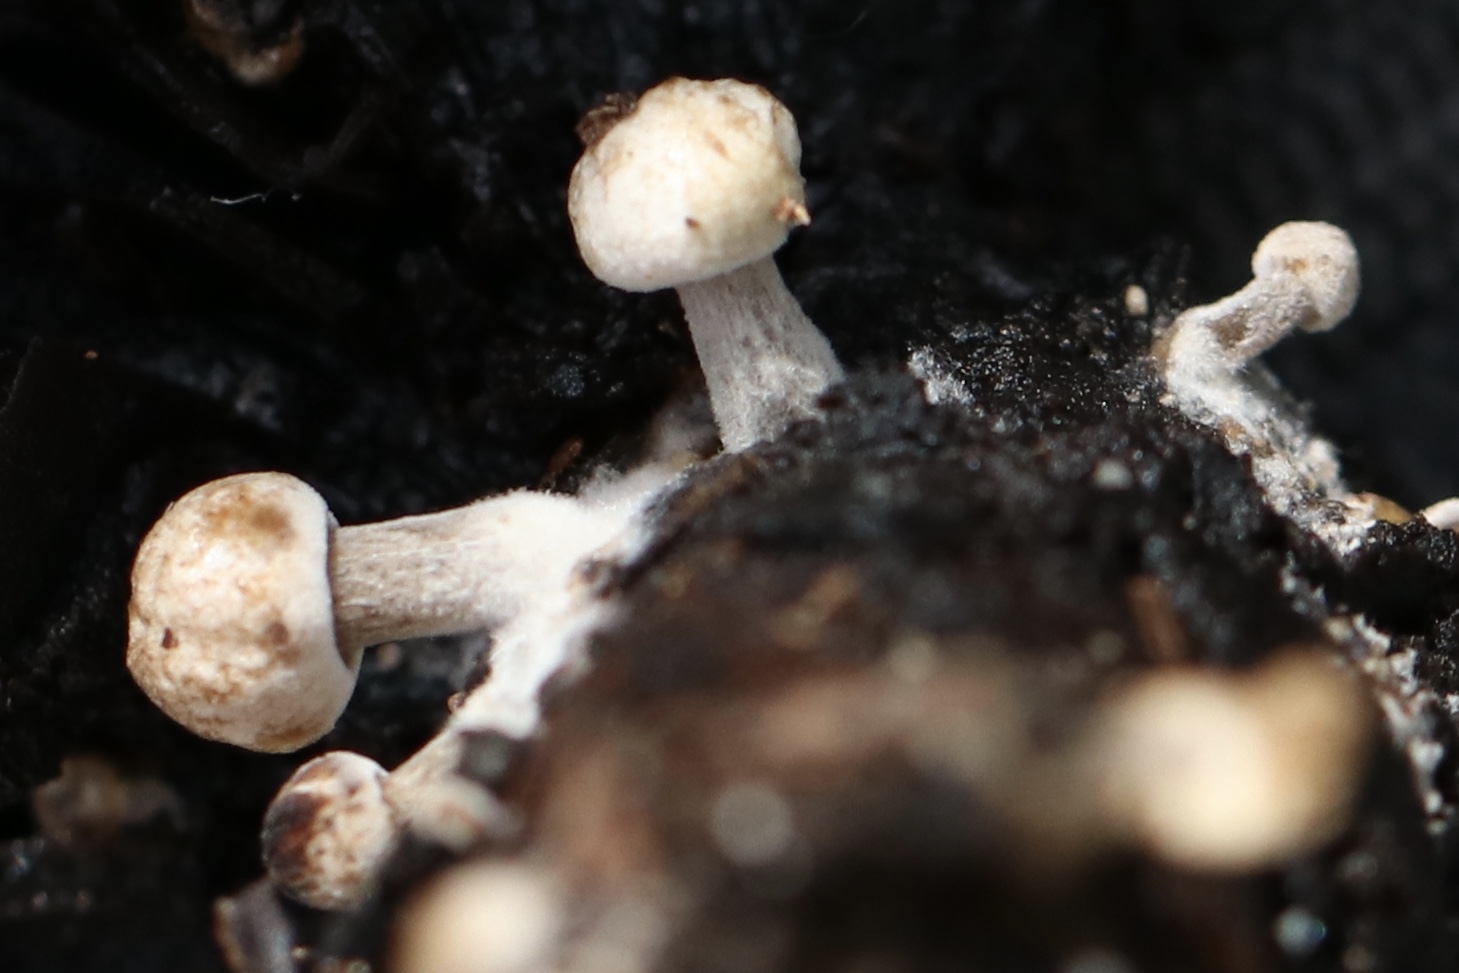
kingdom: Fungi
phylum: Basidiomycota
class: Agaricomycetes
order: Agaricales
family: Lyophyllaceae
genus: Asterophora
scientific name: Asterophora
